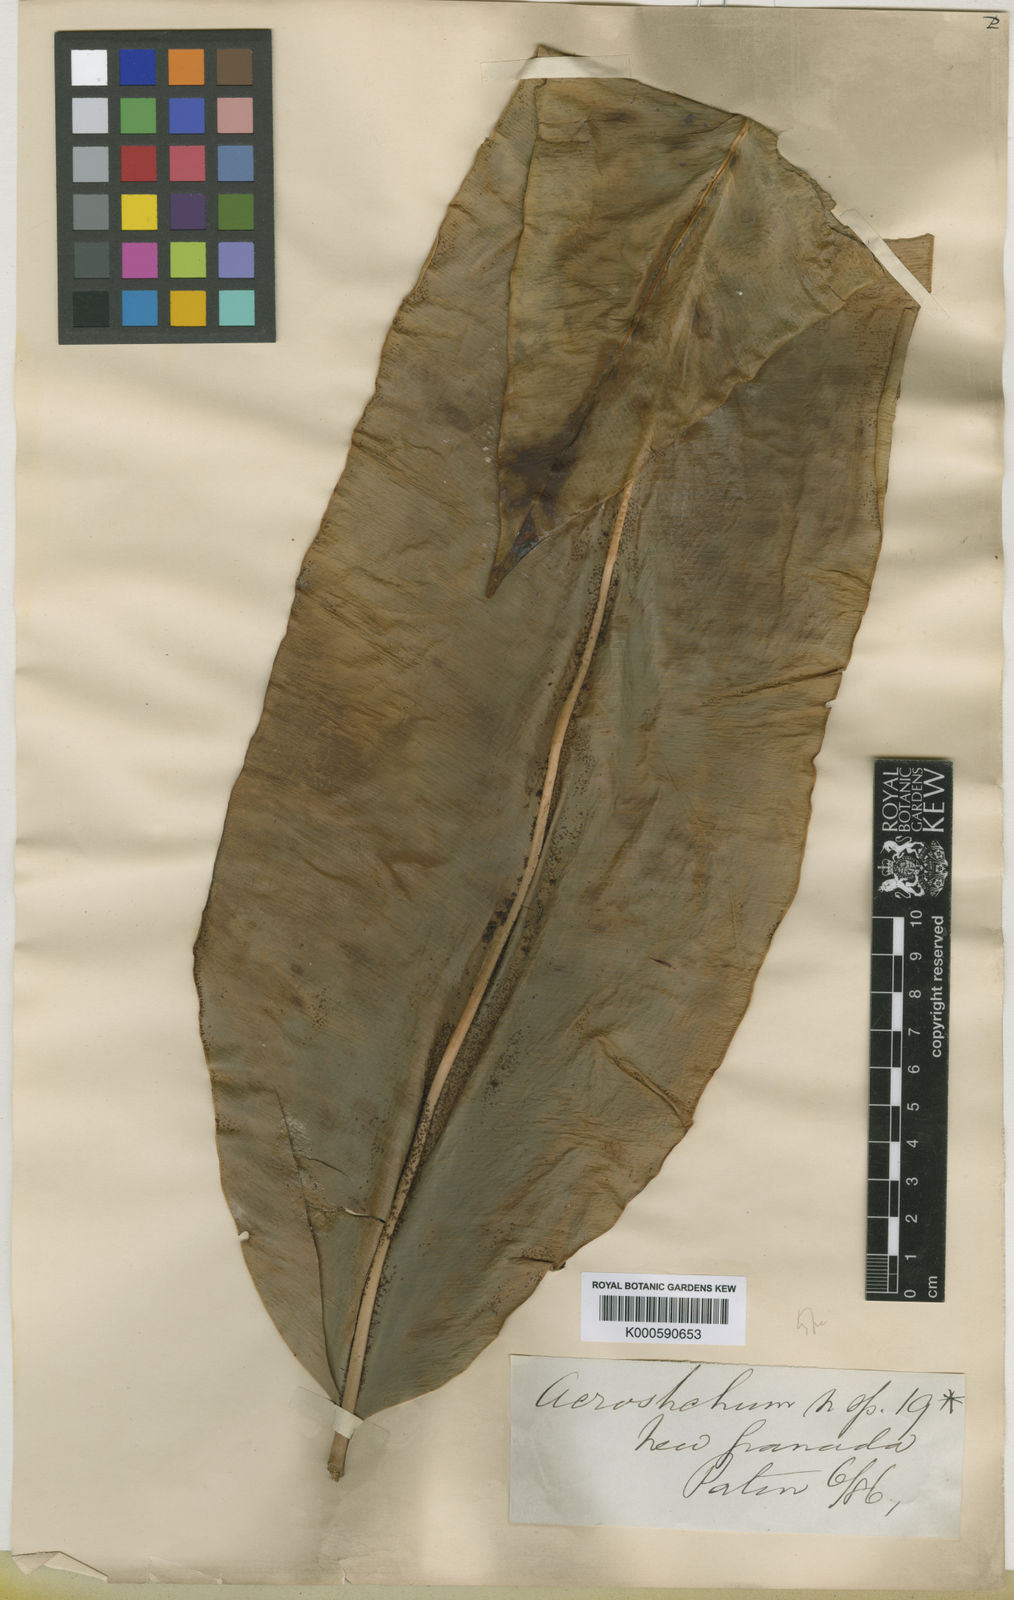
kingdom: Plantae
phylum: Tracheophyta
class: Polypodiopsida
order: Polypodiales
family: Dryopteridaceae
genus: Elaphoglossum
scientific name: Elaphoglossum maximum
